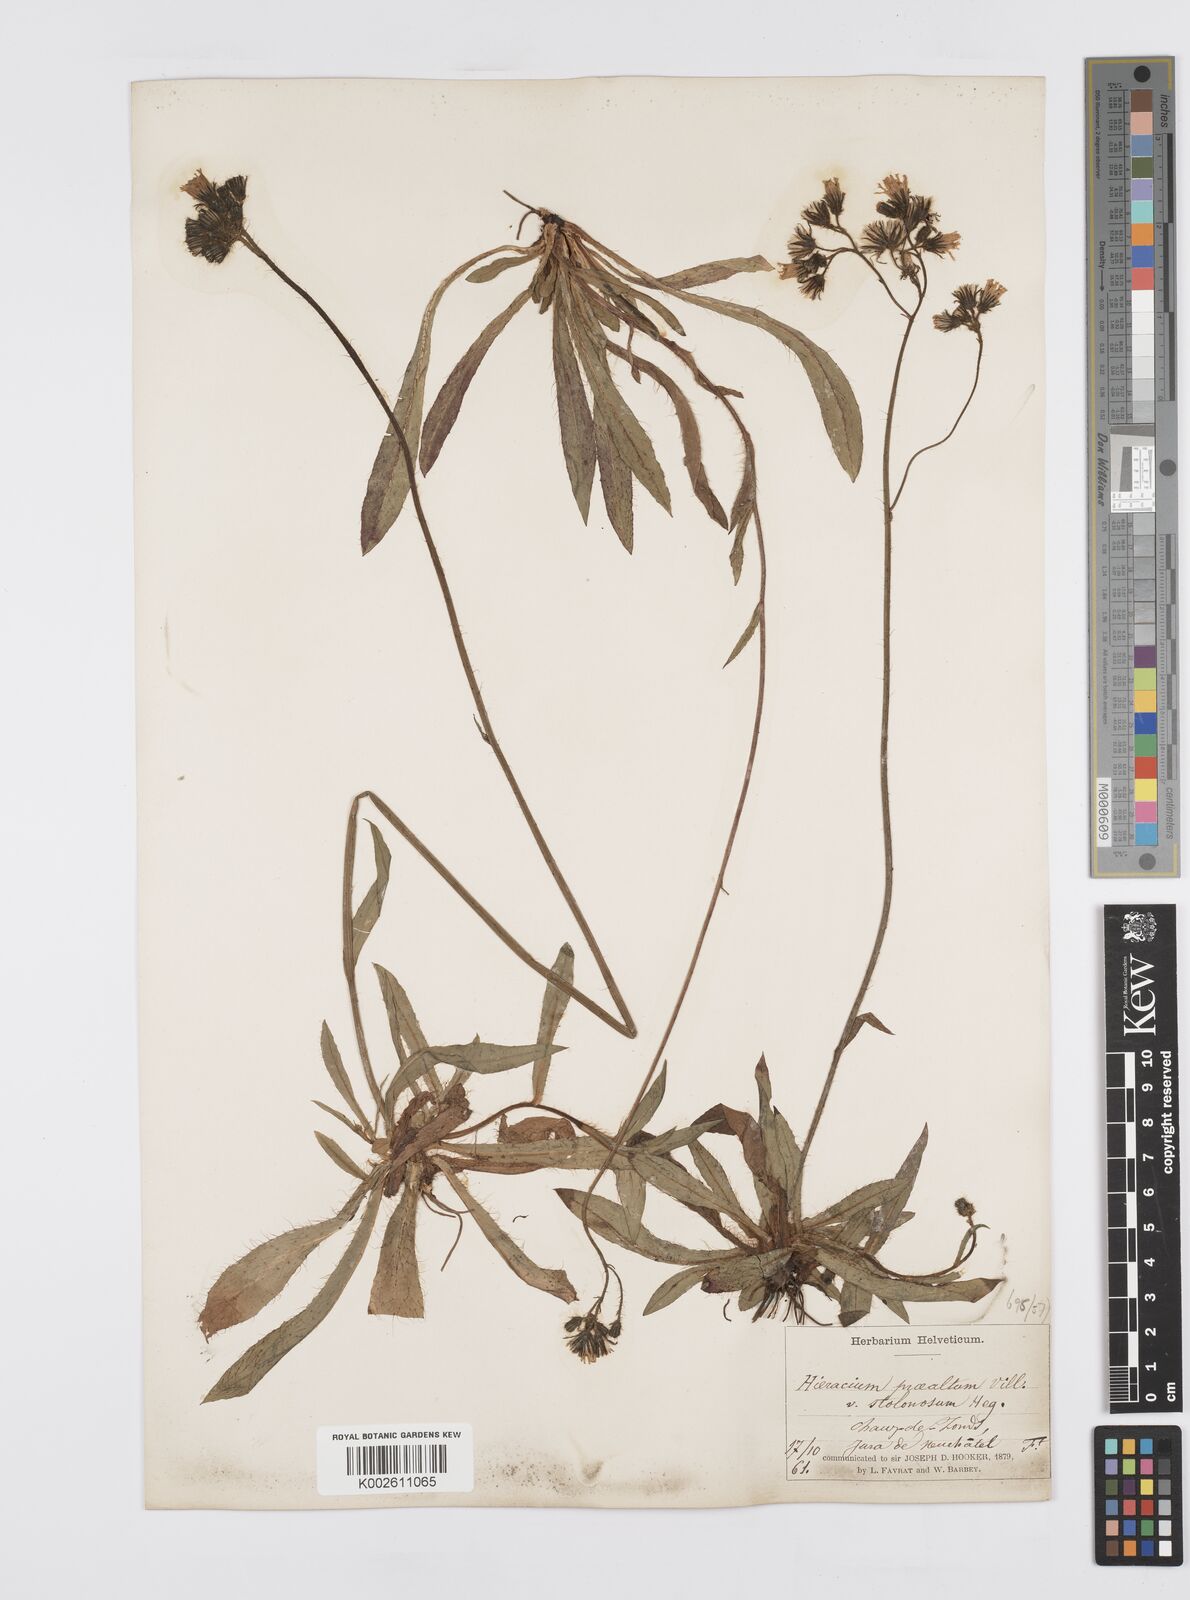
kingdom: Plantae
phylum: Tracheophyta
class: Magnoliopsida
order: Asterales
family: Asteraceae
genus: Pilosella
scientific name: Pilosella piloselloides
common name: Glaucous king-devil
